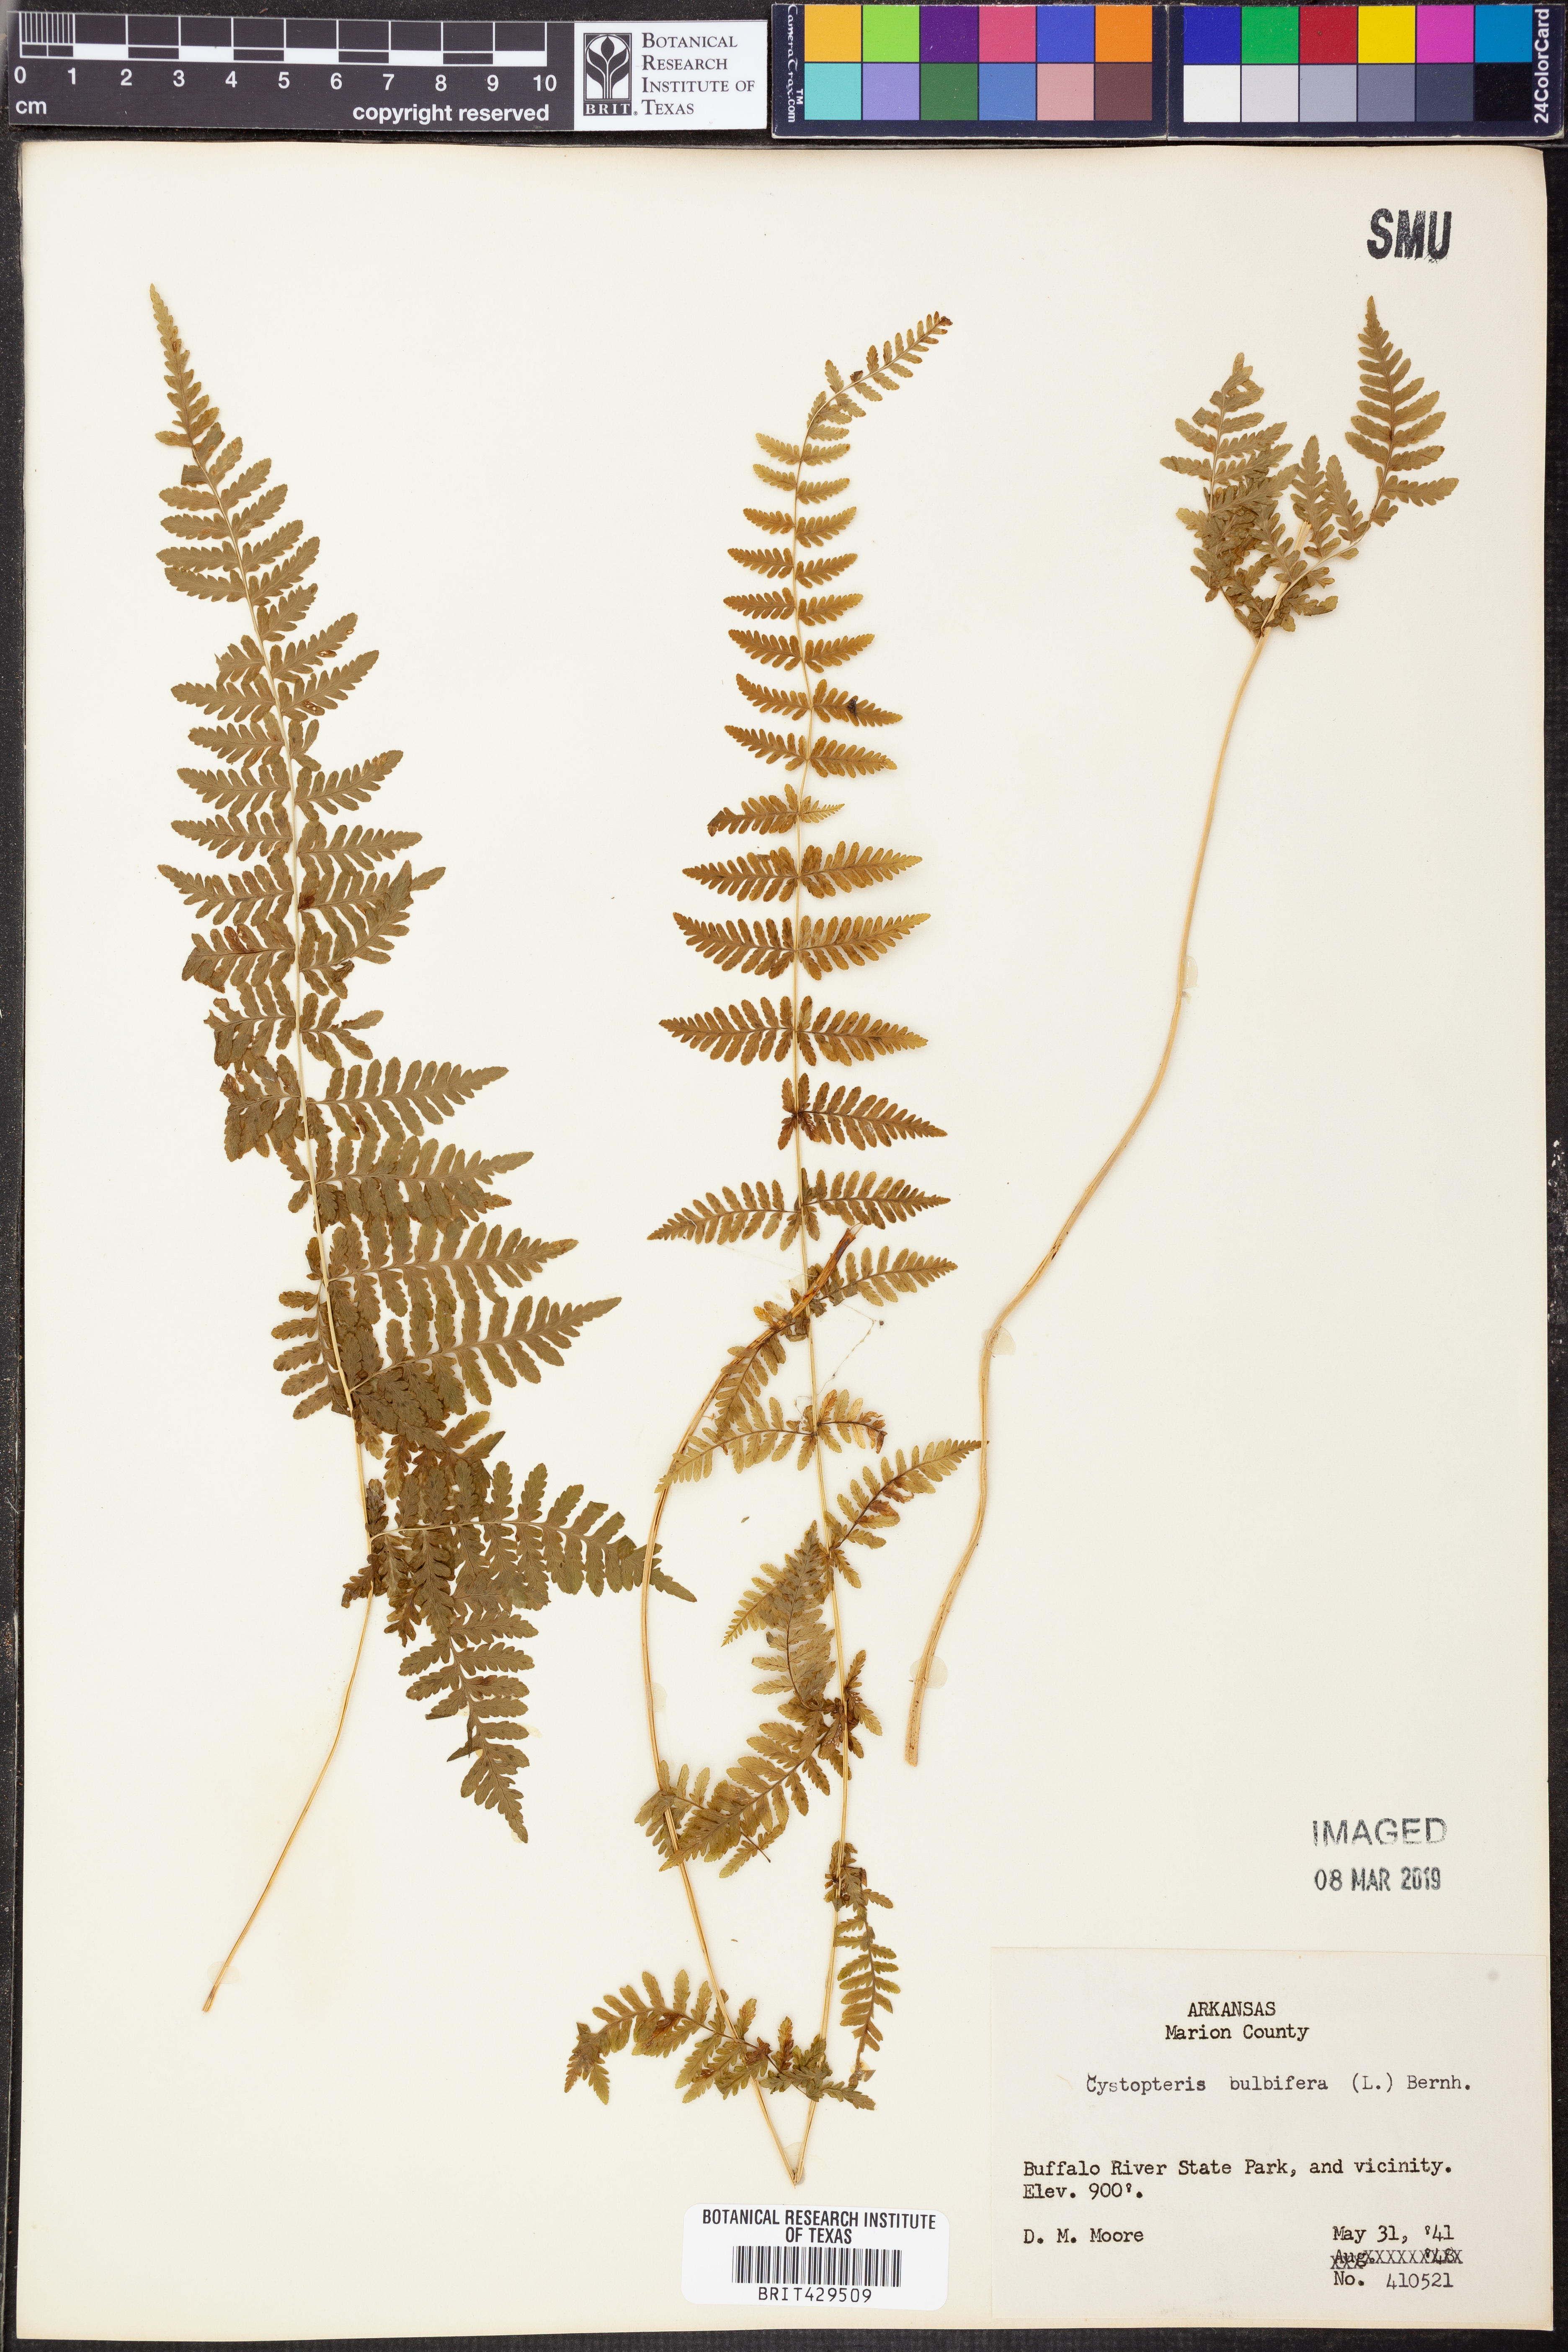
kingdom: Plantae
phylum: Tracheophyta
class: Polypodiopsida
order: Polypodiales
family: Cystopteridaceae
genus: Cystopteris
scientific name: Cystopteris bulbifera
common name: Bulblet bladder fern
